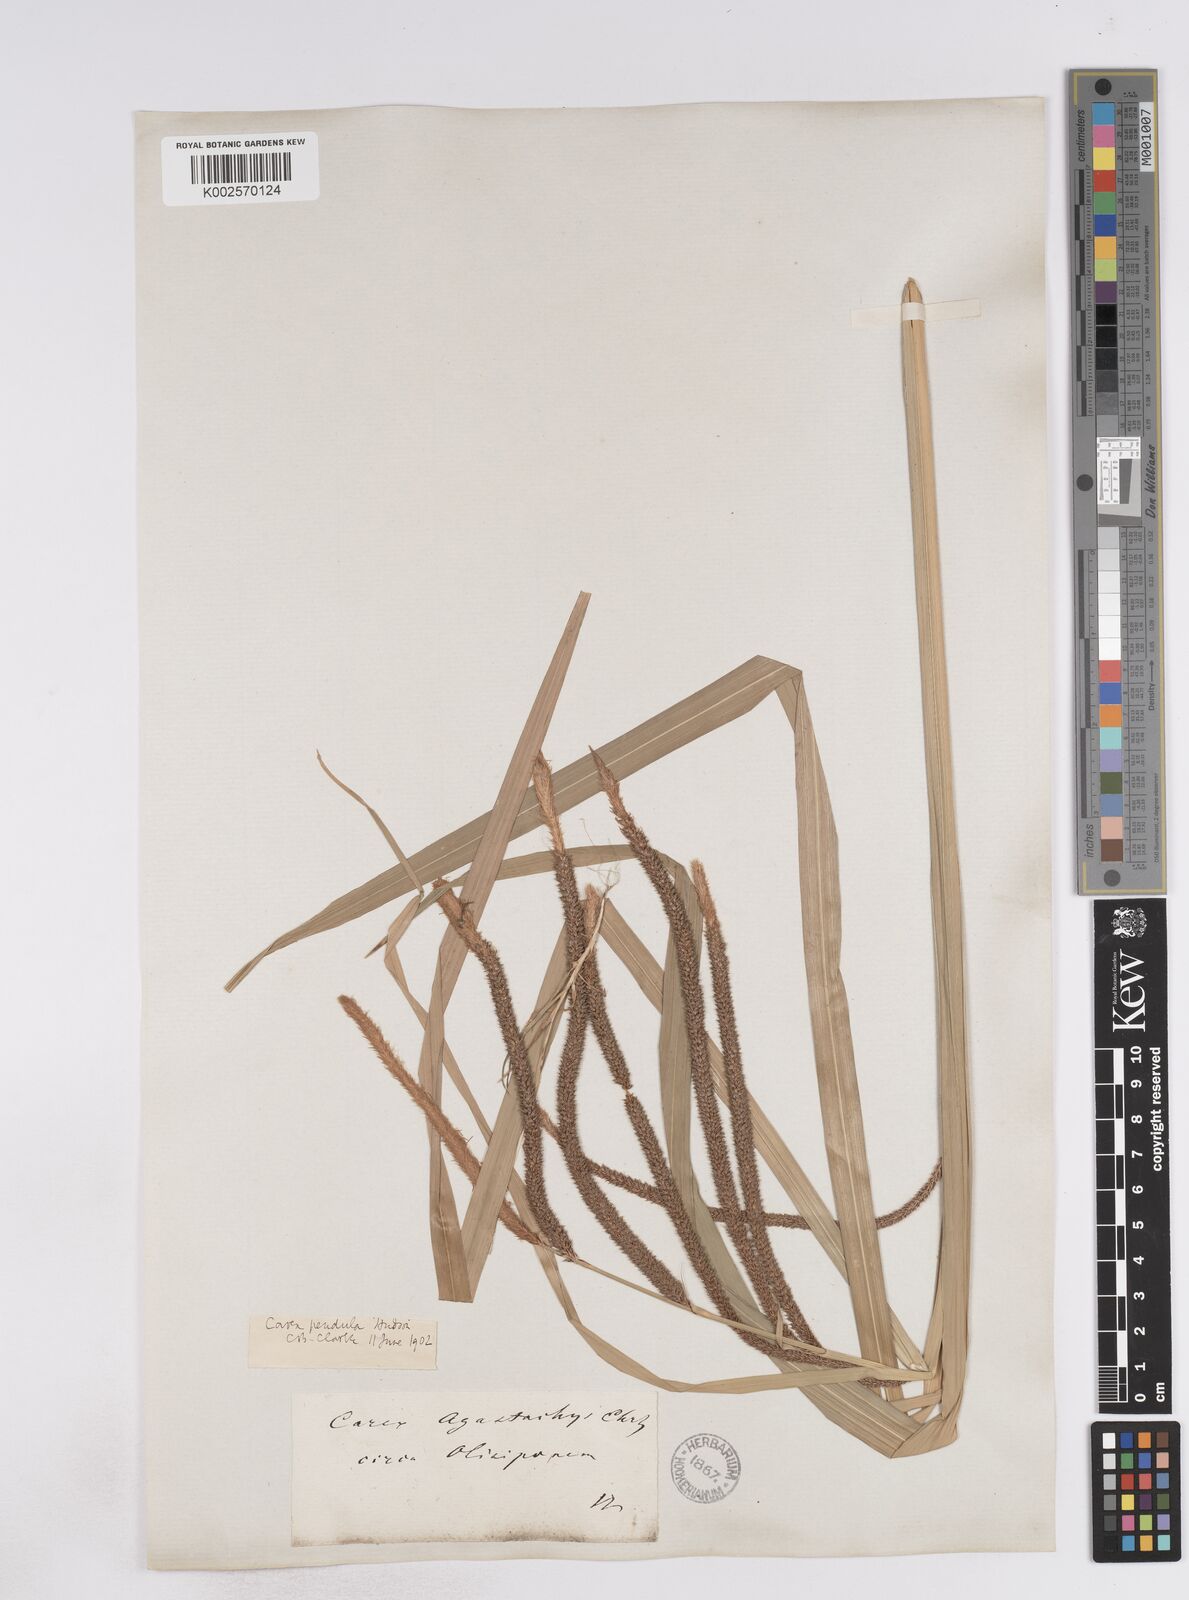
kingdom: Plantae
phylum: Tracheophyta
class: Liliopsida
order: Poales
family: Cyperaceae
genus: Carex
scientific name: Carex pendula
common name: Pendulous sedge
